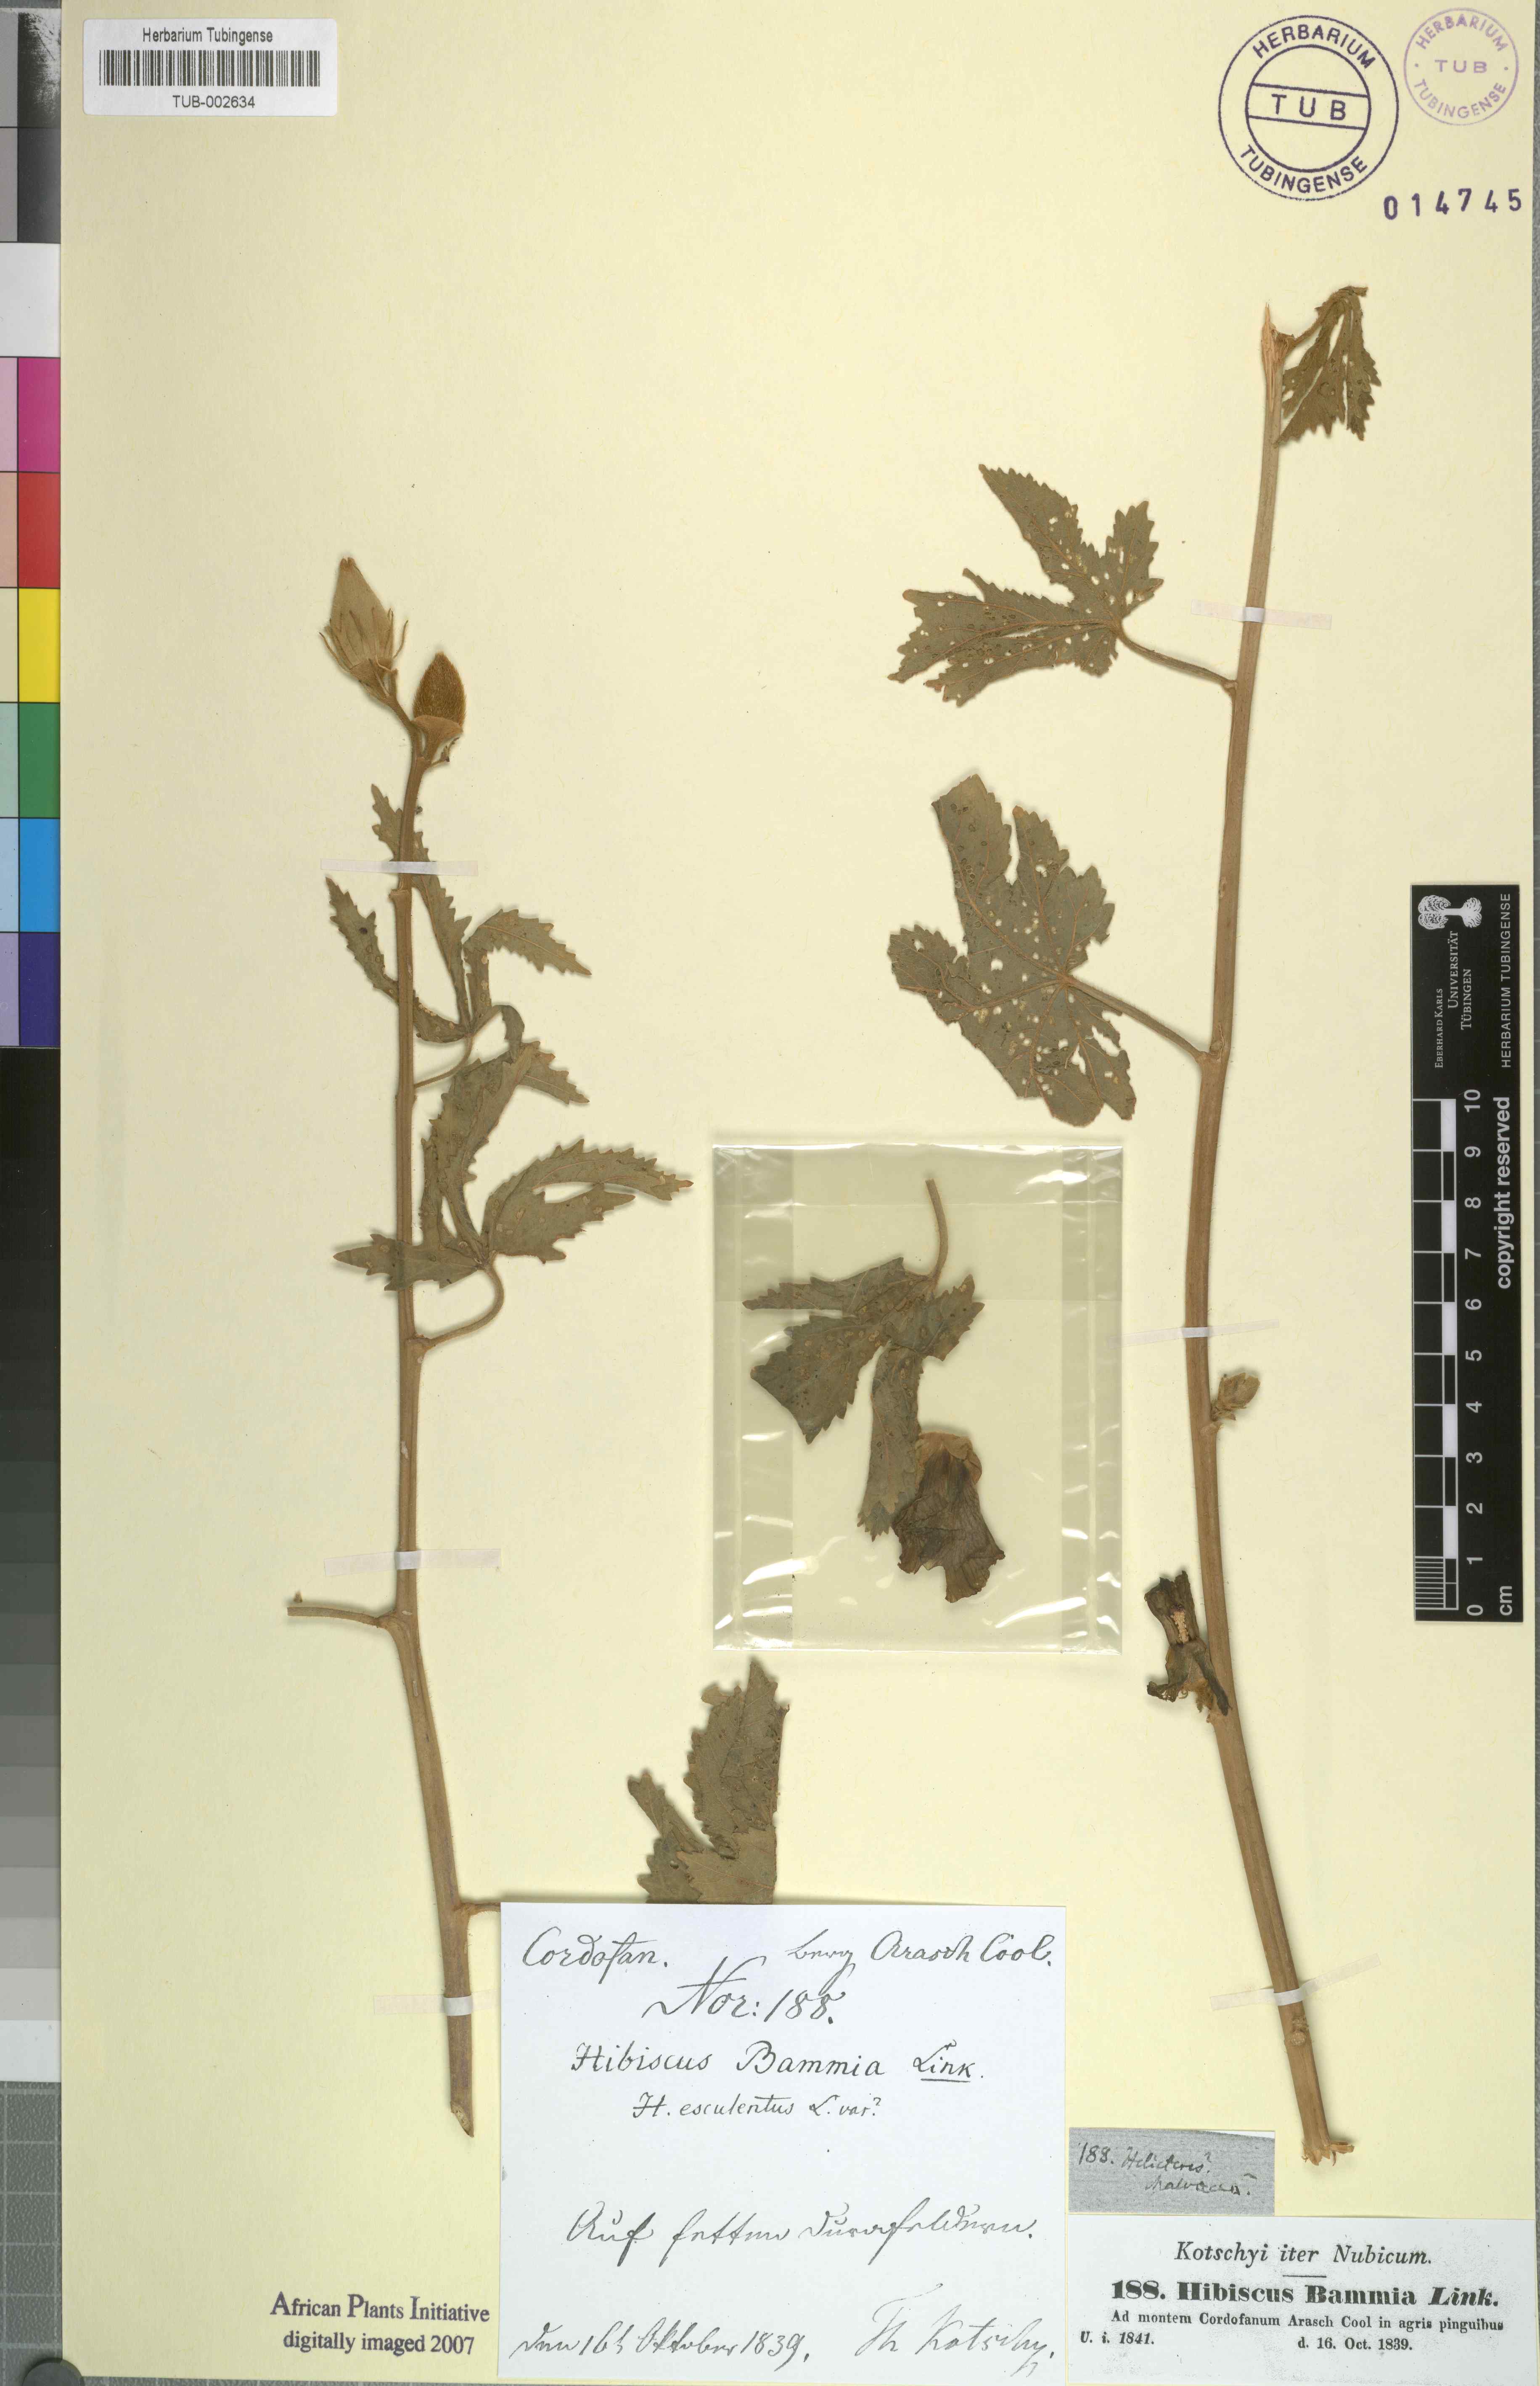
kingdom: Plantae
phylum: Tracheophyta
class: Magnoliopsida
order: Malvales
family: Malvaceae
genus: Abelmoschus
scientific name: Abelmoschus esculentus
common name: Okra
